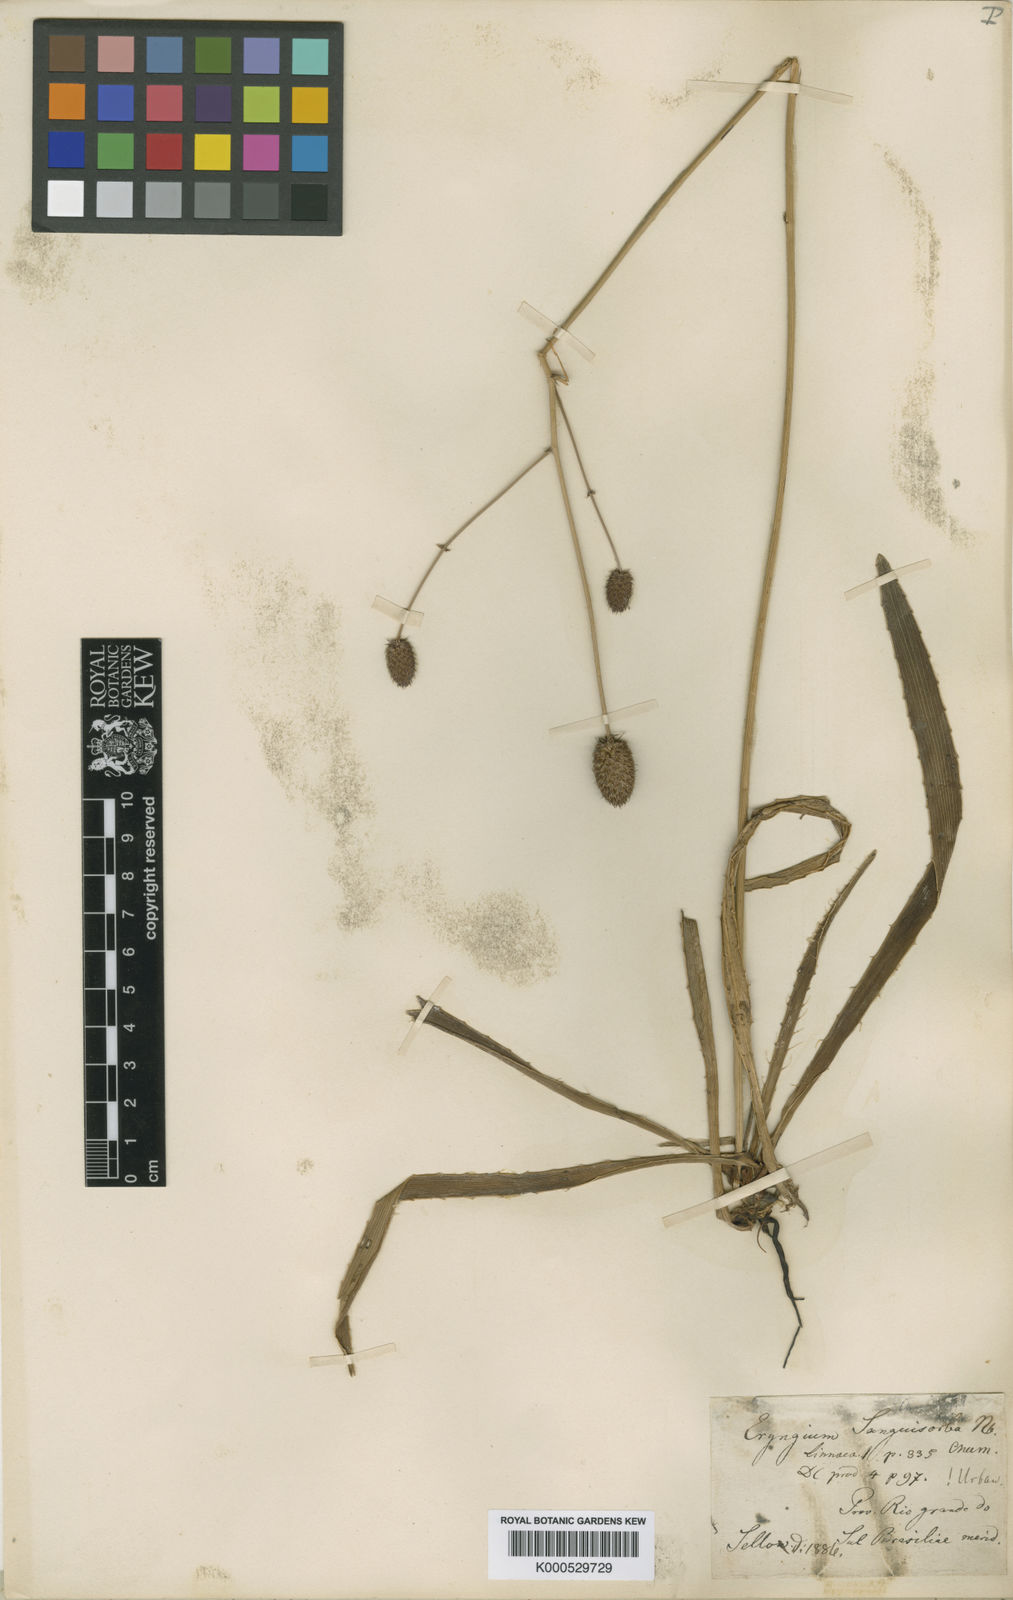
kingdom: Plantae
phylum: Tracheophyta
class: Magnoliopsida
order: Apiales
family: Apiaceae
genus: Eryngium
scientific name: Eryngium sanguisorba
